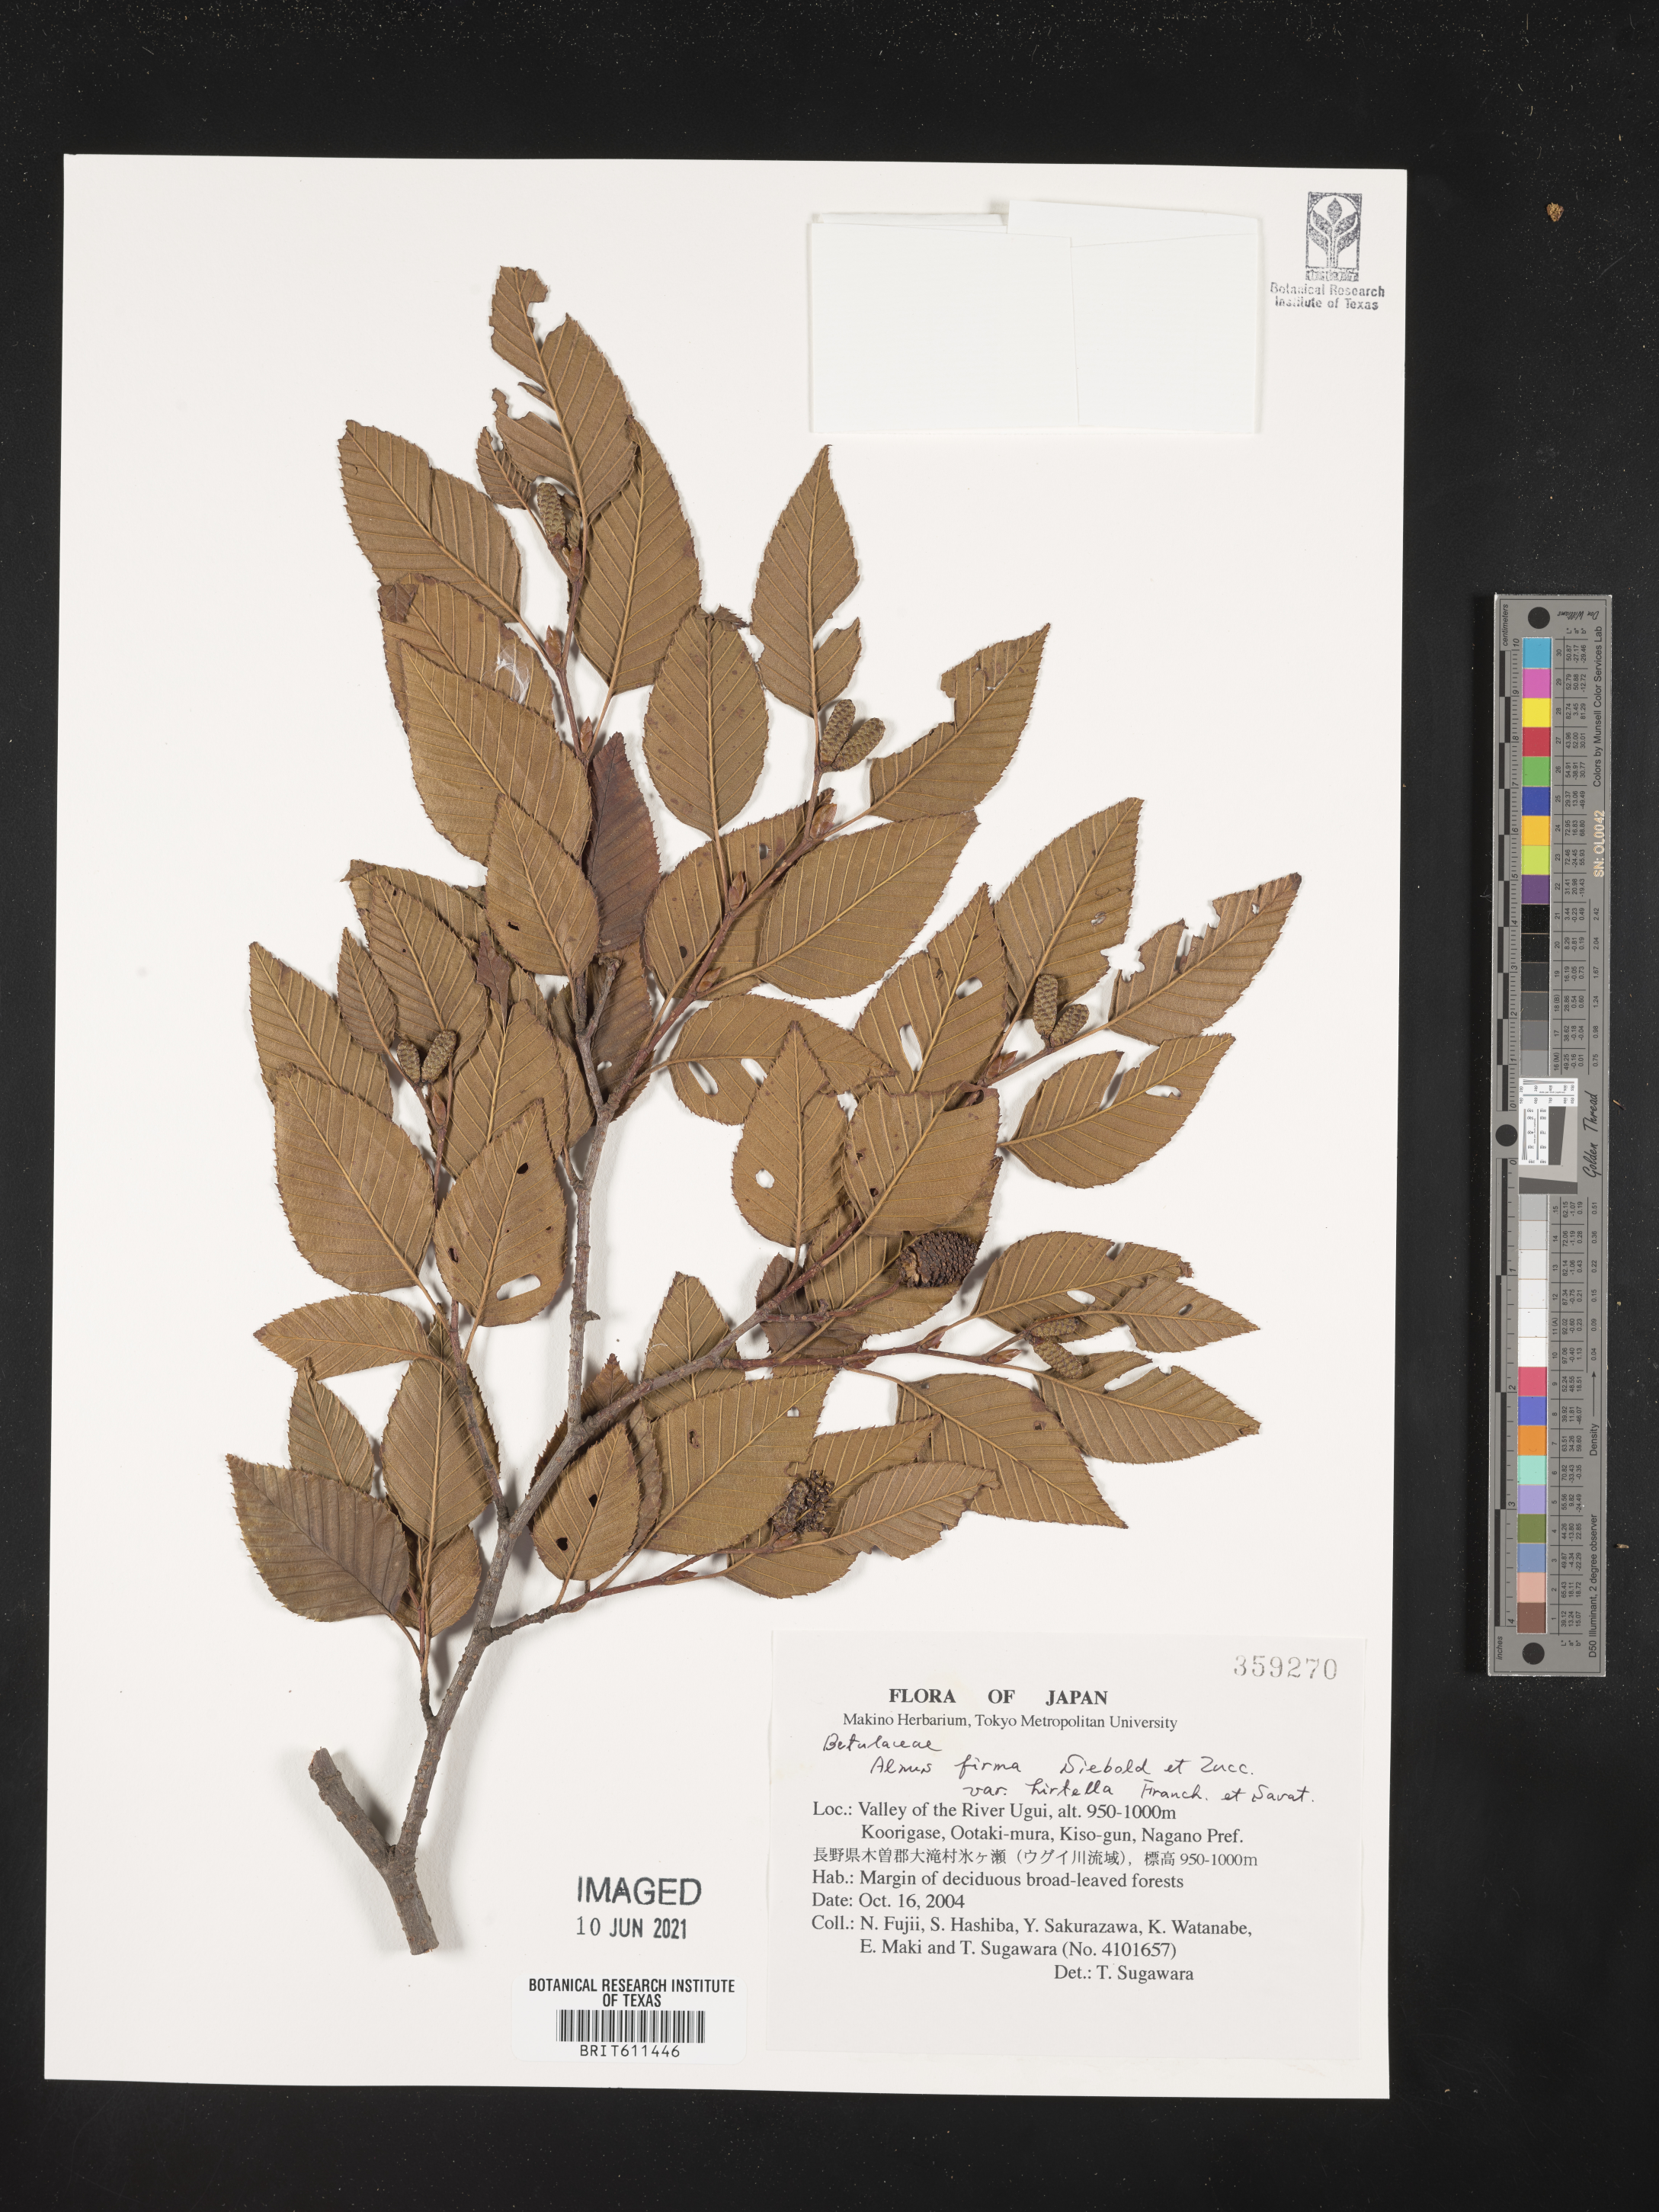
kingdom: Plantae
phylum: Tracheophyta
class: Magnoliopsida
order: Fagales
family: Betulaceae
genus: Alnus
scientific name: Alnus firma
